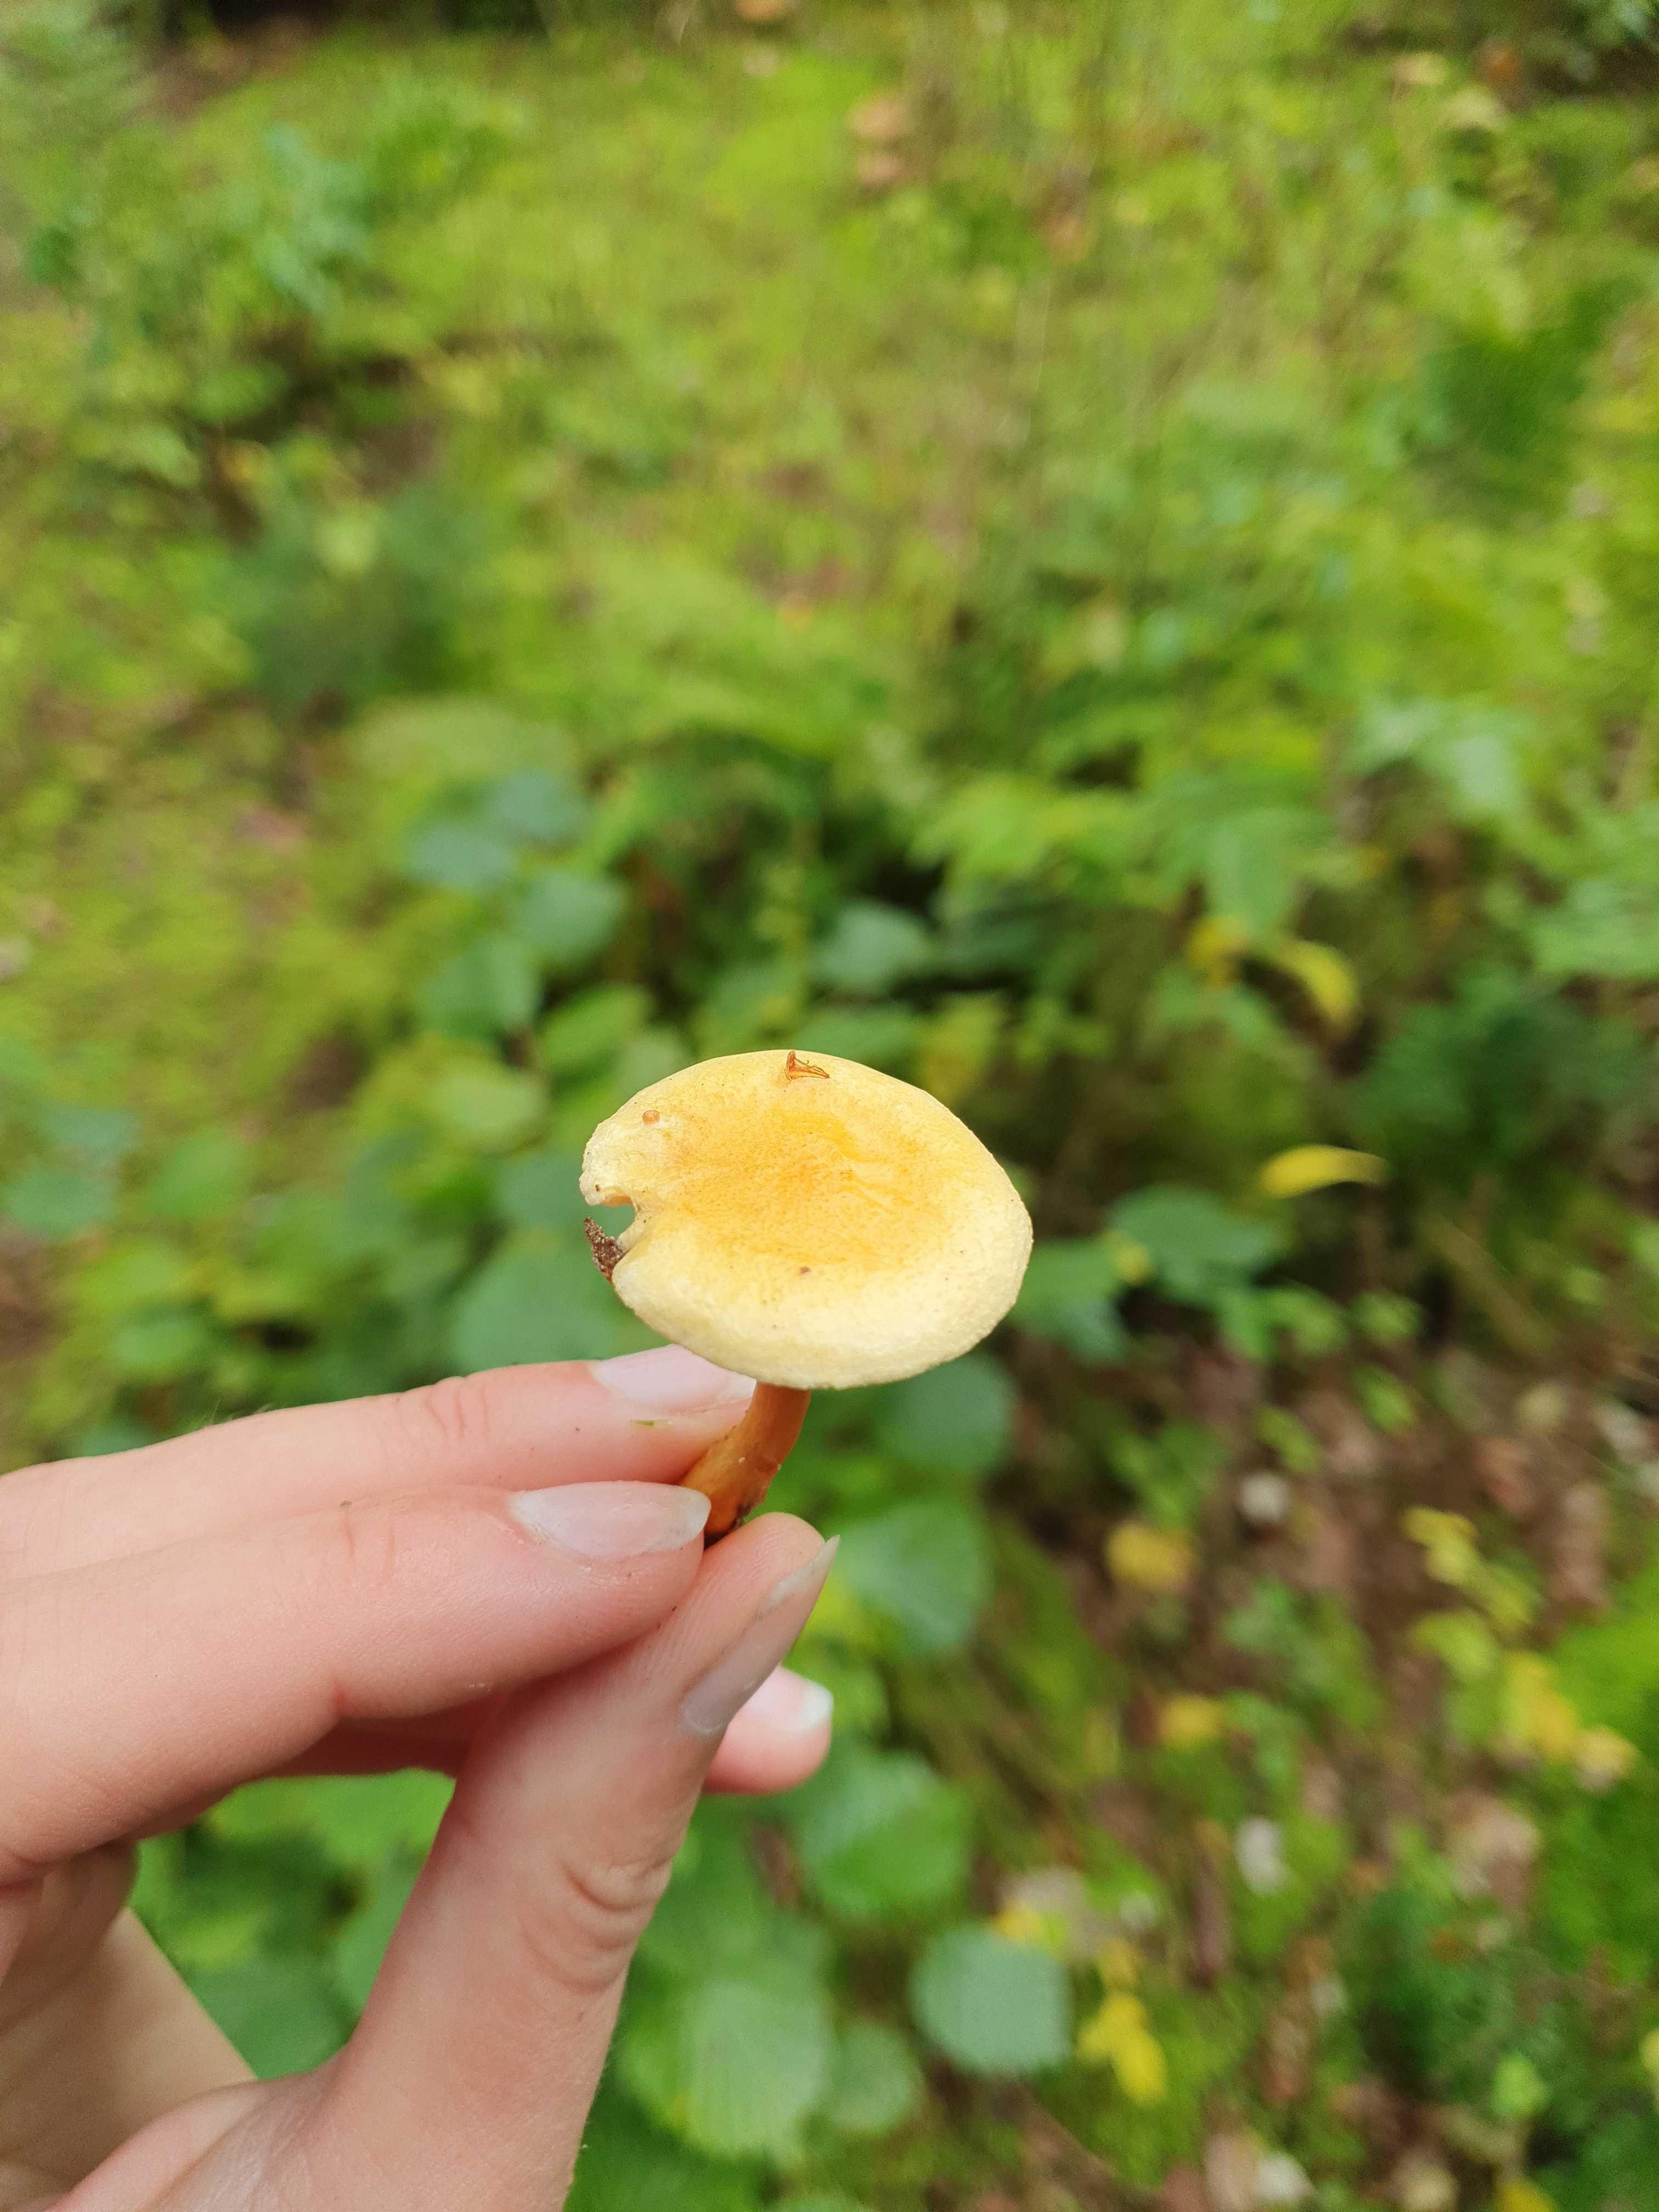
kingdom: Fungi
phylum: Basidiomycota
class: Agaricomycetes
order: Boletales
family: Hygrophoropsidaceae
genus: Hygrophoropsis
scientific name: Hygrophoropsis aurantiaca
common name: almindelig orangekantarel
